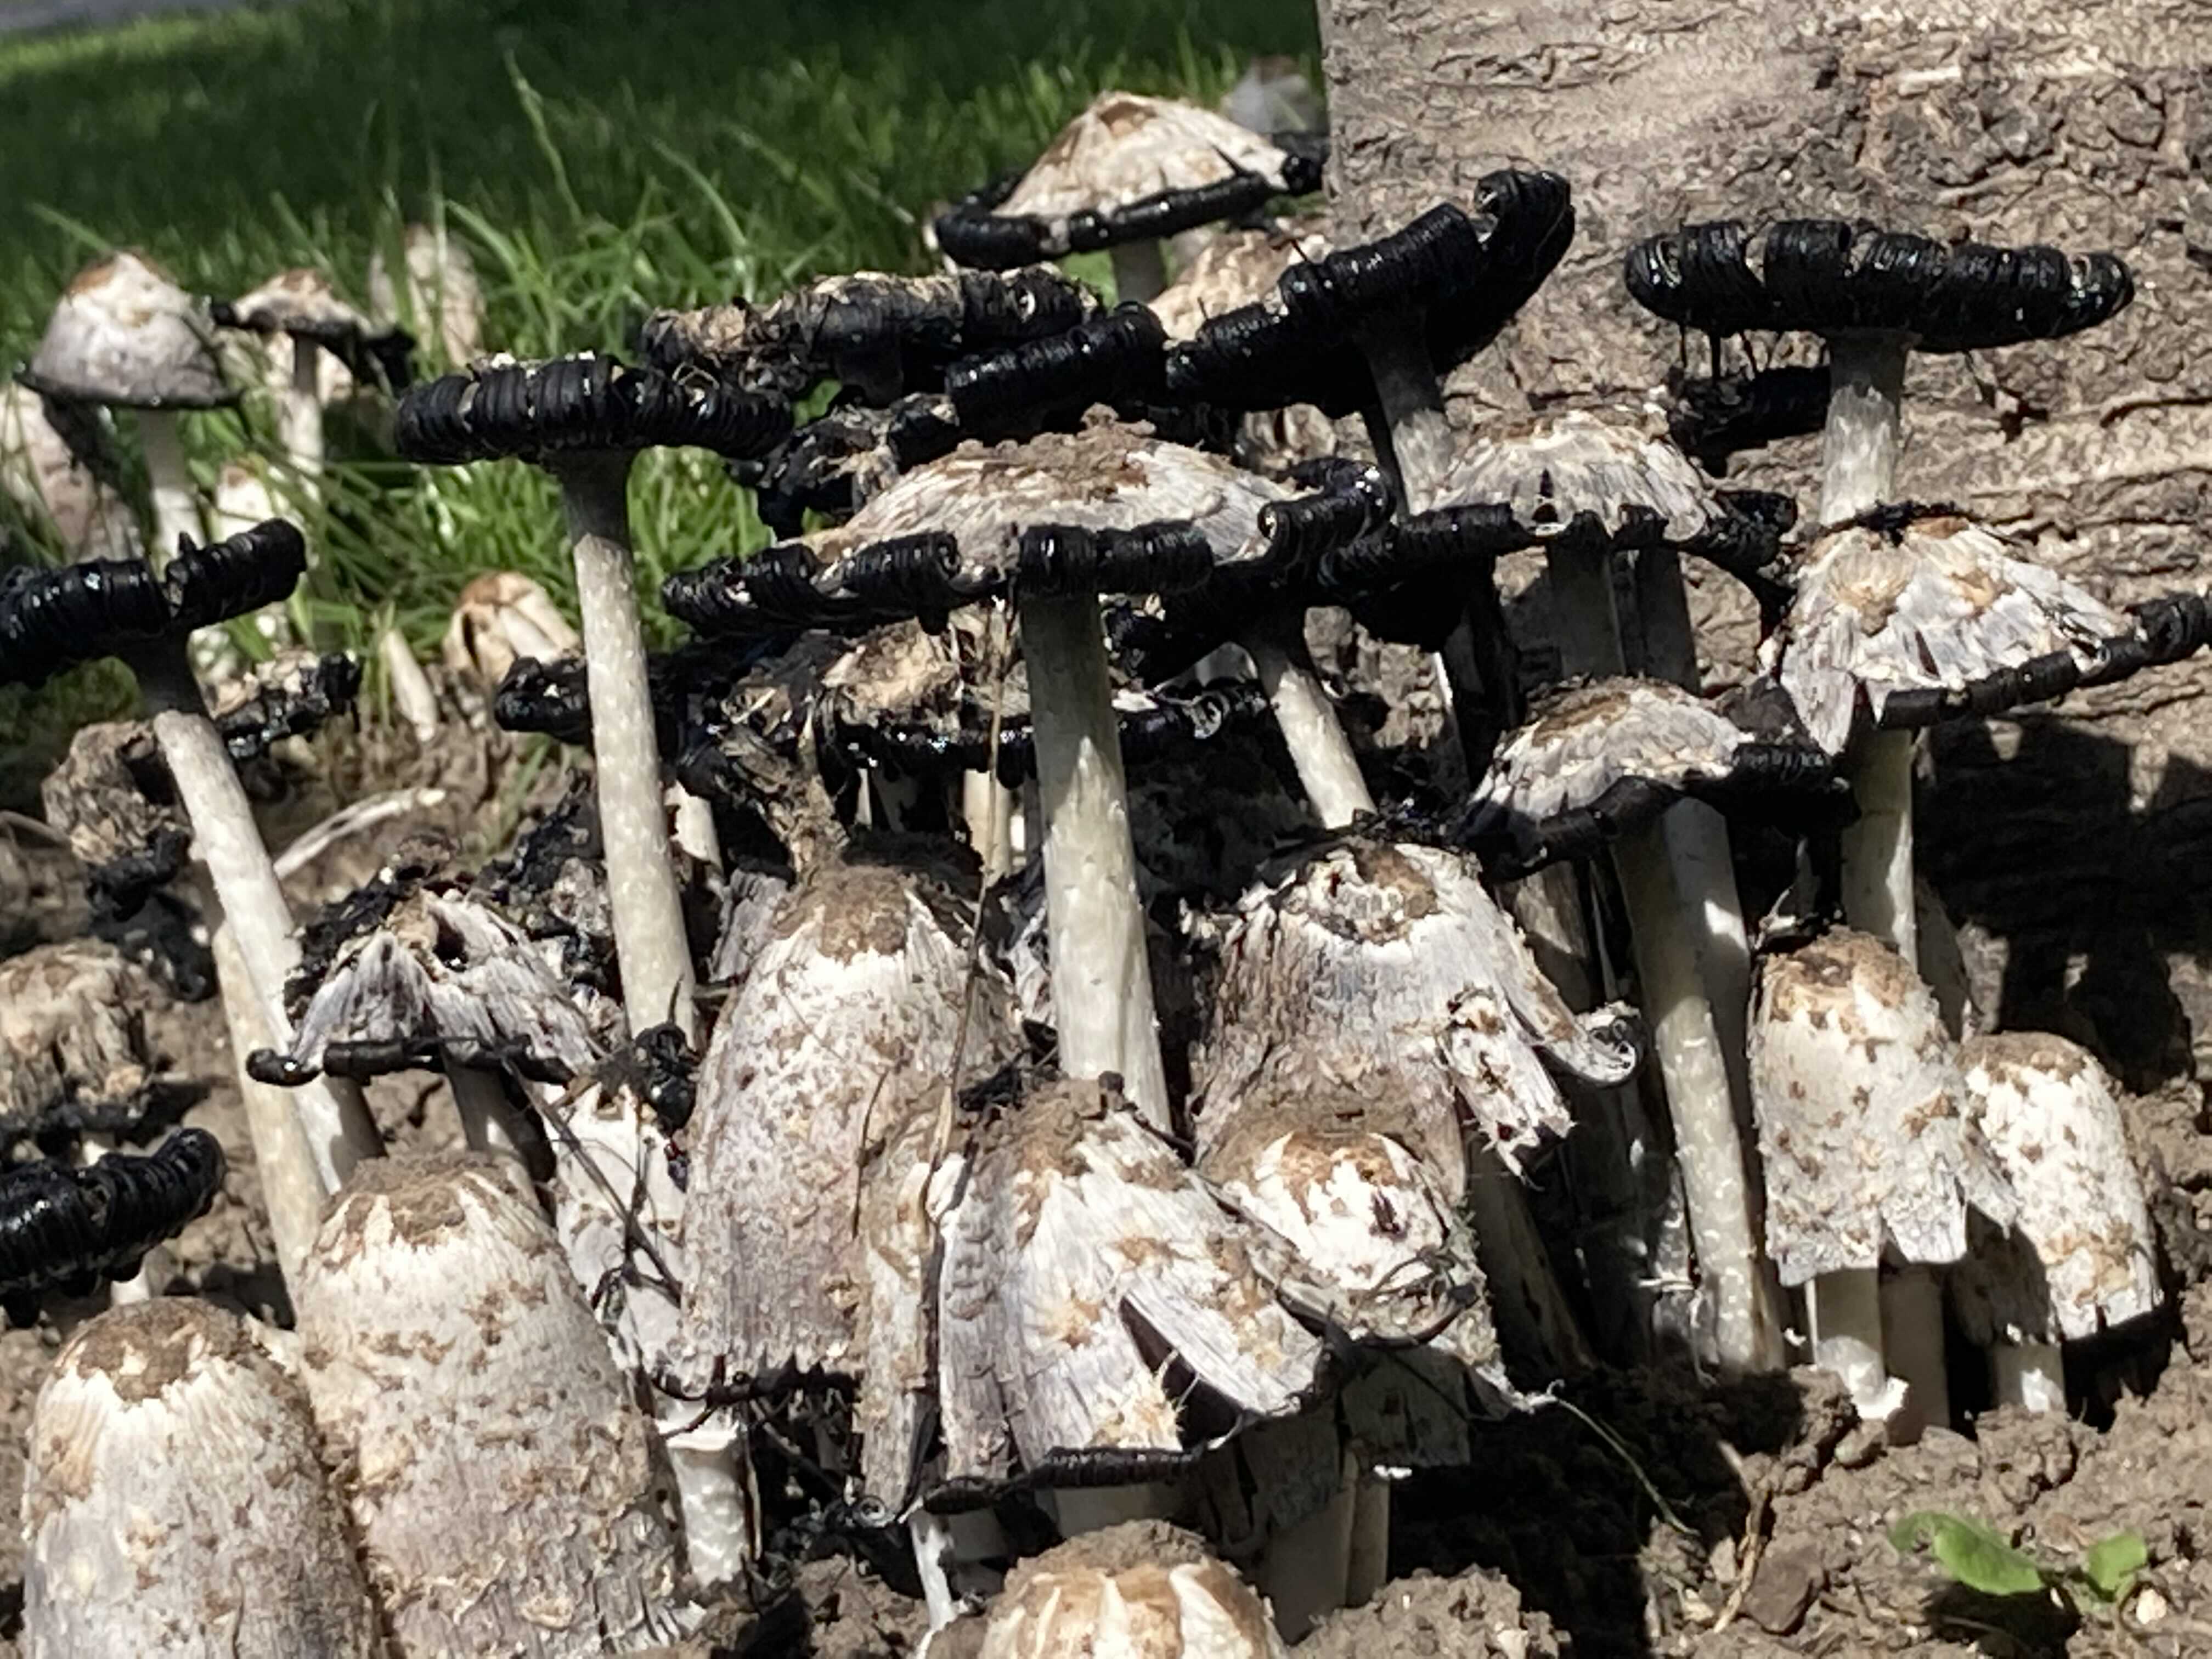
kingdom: Fungi
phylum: Basidiomycota
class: Agaricomycetes
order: Agaricales
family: Agaricaceae
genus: Coprinus
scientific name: Coprinus comatus
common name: stor parykhat
